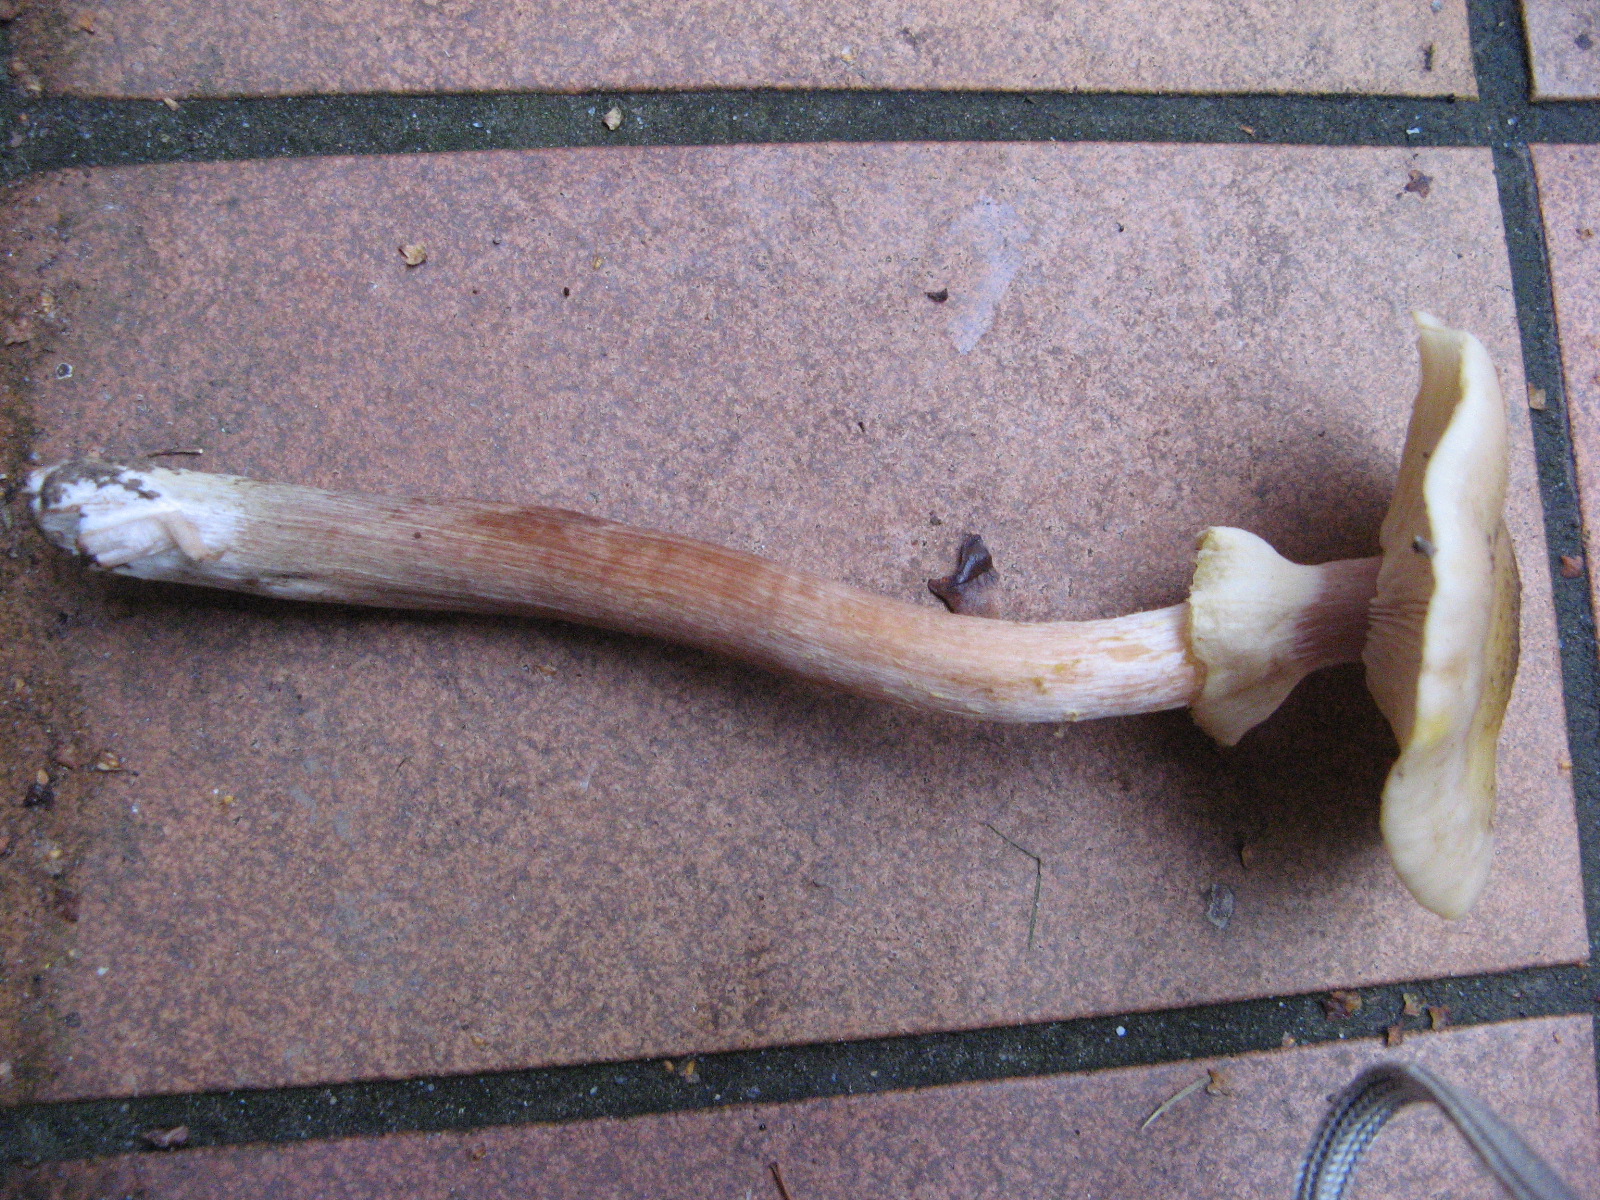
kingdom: Fungi
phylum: Basidiomycota
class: Agaricomycetes
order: Agaricales
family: Physalacriaceae
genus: Armillaria
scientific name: Armillaria mellea
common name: ægte honningsvamp
